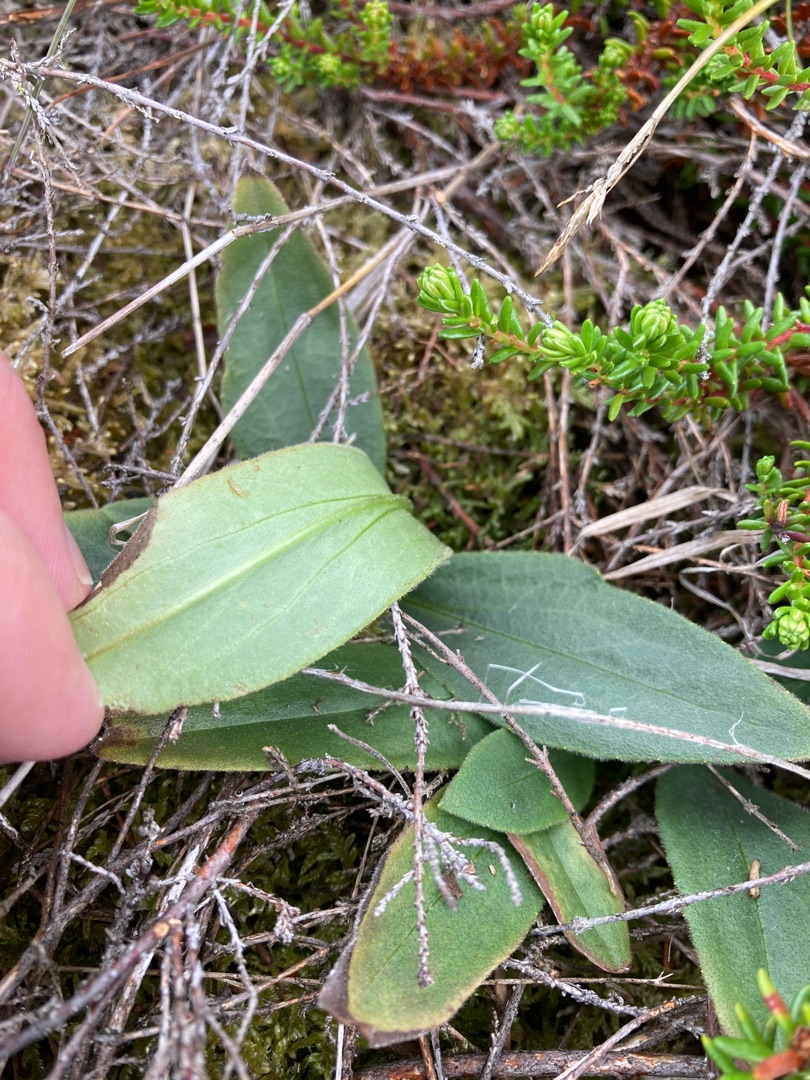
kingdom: Plantae
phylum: Tracheophyta
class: Magnoliopsida
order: Asterales
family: Asteraceae
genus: Arnica
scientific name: Arnica montana
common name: Guldblomme
